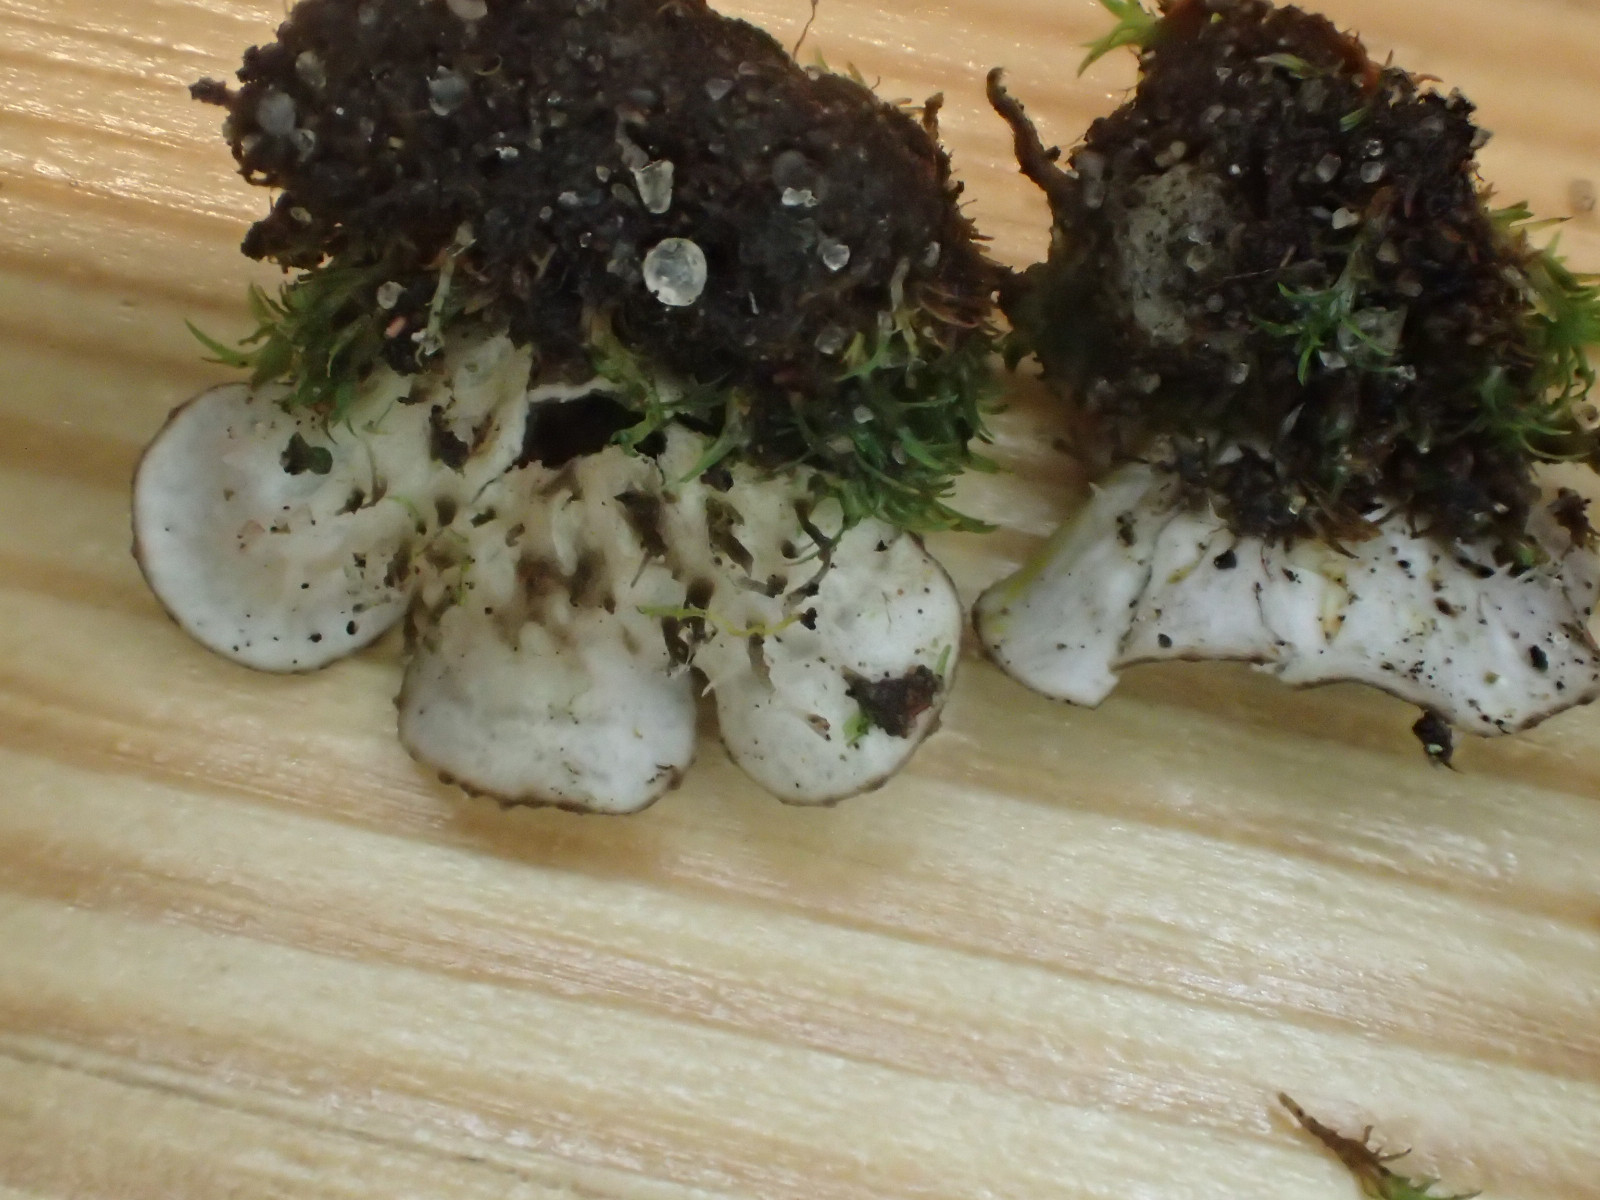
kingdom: Fungi
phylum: Ascomycota
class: Lecanoromycetes
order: Peltigerales
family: Peltigeraceae
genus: Peltigera
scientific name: Peltigera didactyla
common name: liden skjoldlav
